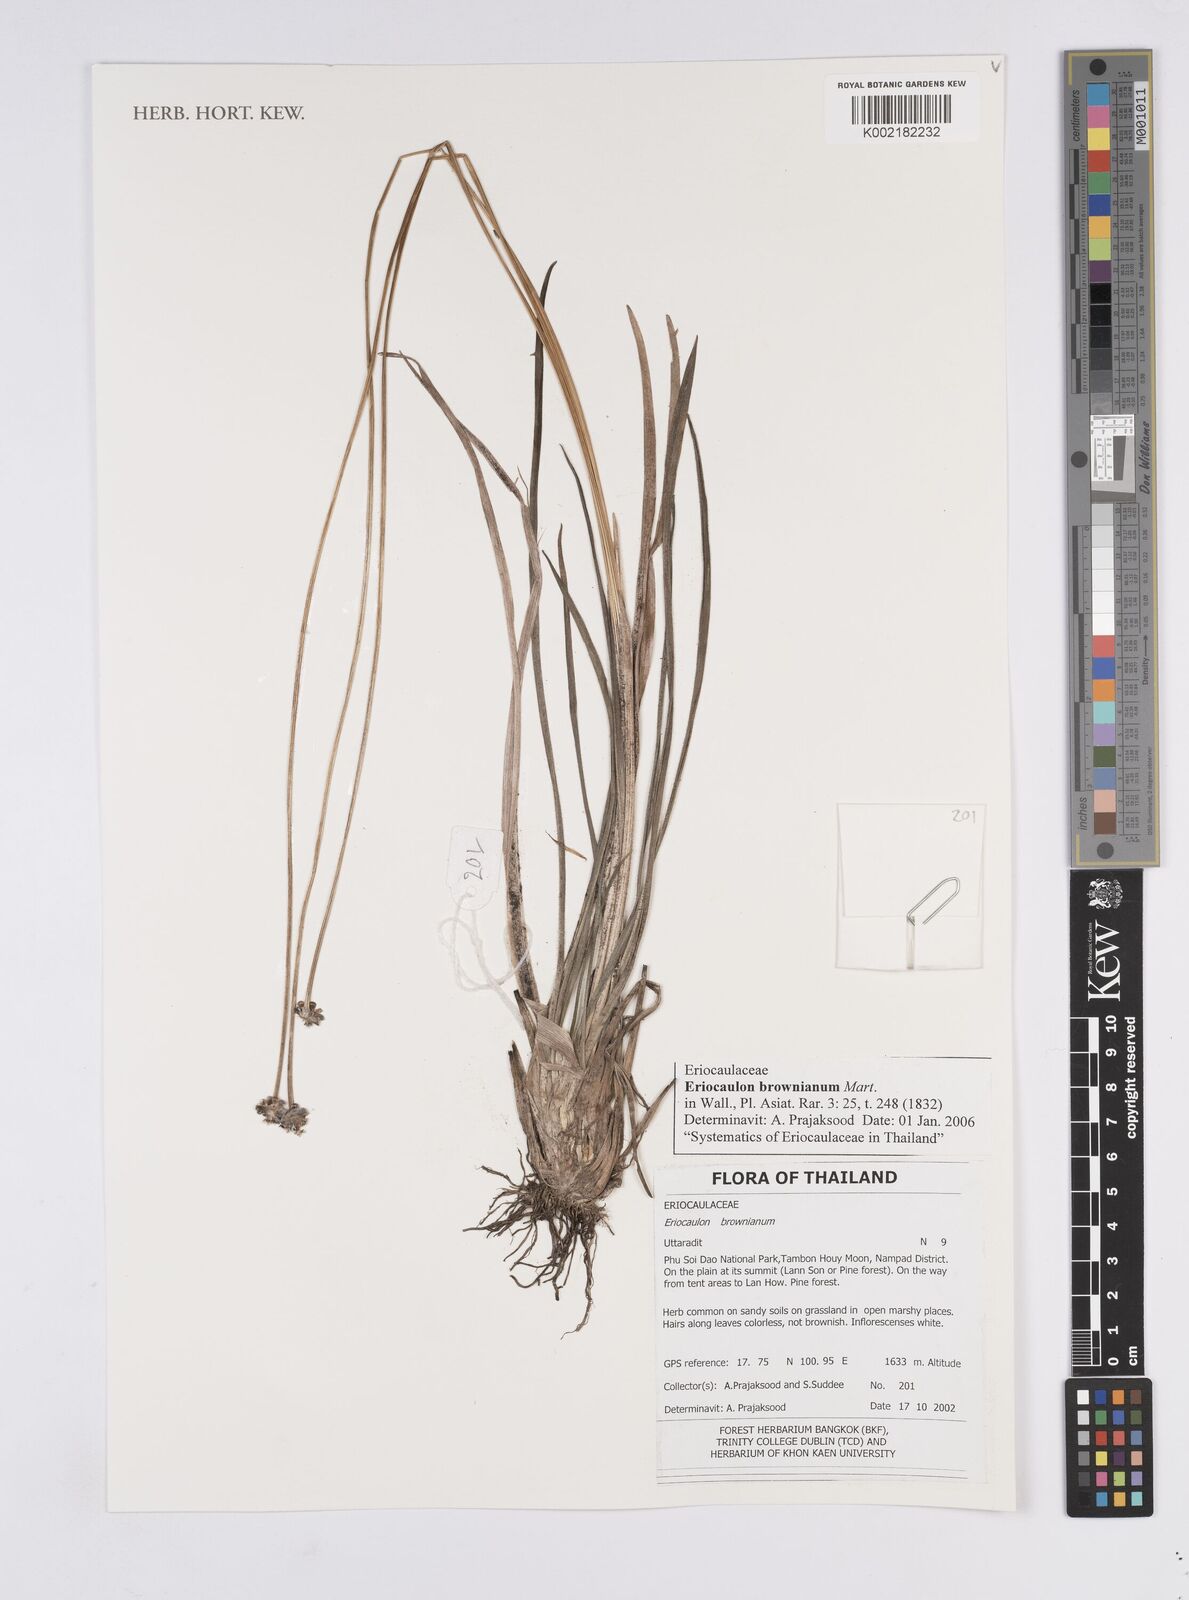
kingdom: Plantae
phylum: Tracheophyta
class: Liliopsida
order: Poales
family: Eriocaulaceae
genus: Eriocaulon
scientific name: Eriocaulon brownianum
